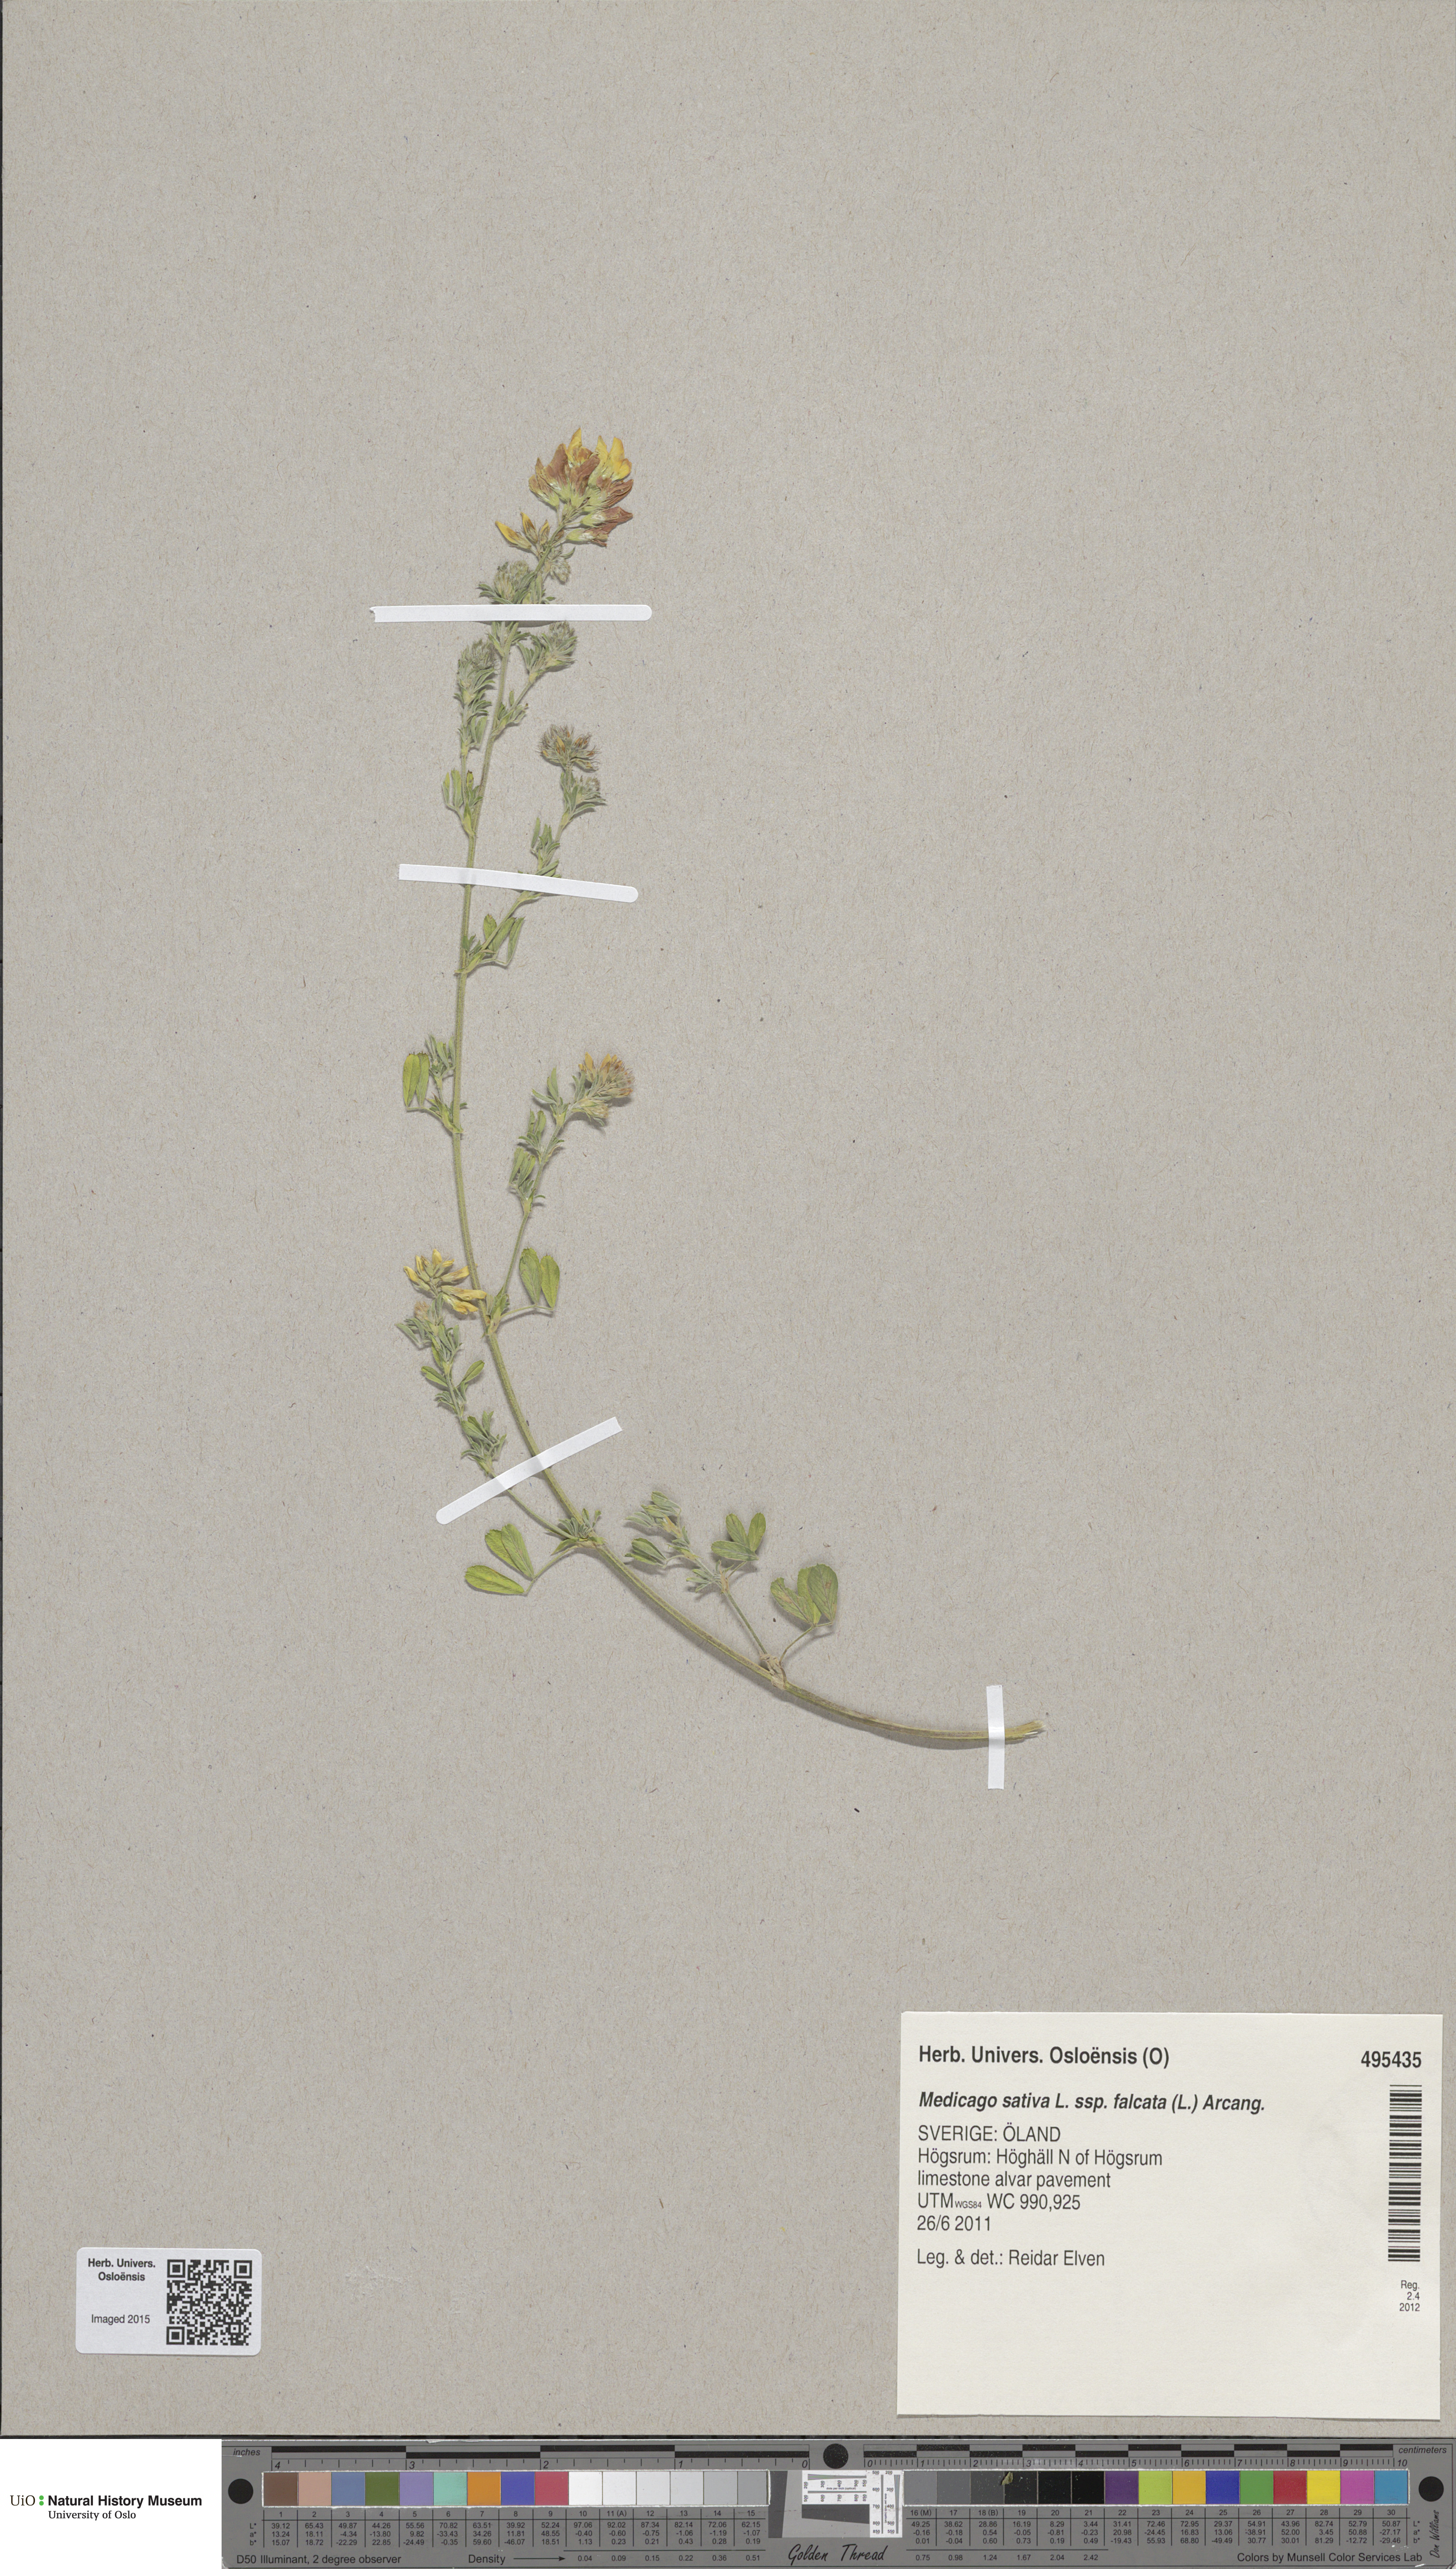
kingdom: Plantae
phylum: Tracheophyta
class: Magnoliopsida
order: Fabales
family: Fabaceae
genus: Medicago
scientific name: Medicago falcata
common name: Sickle medick
